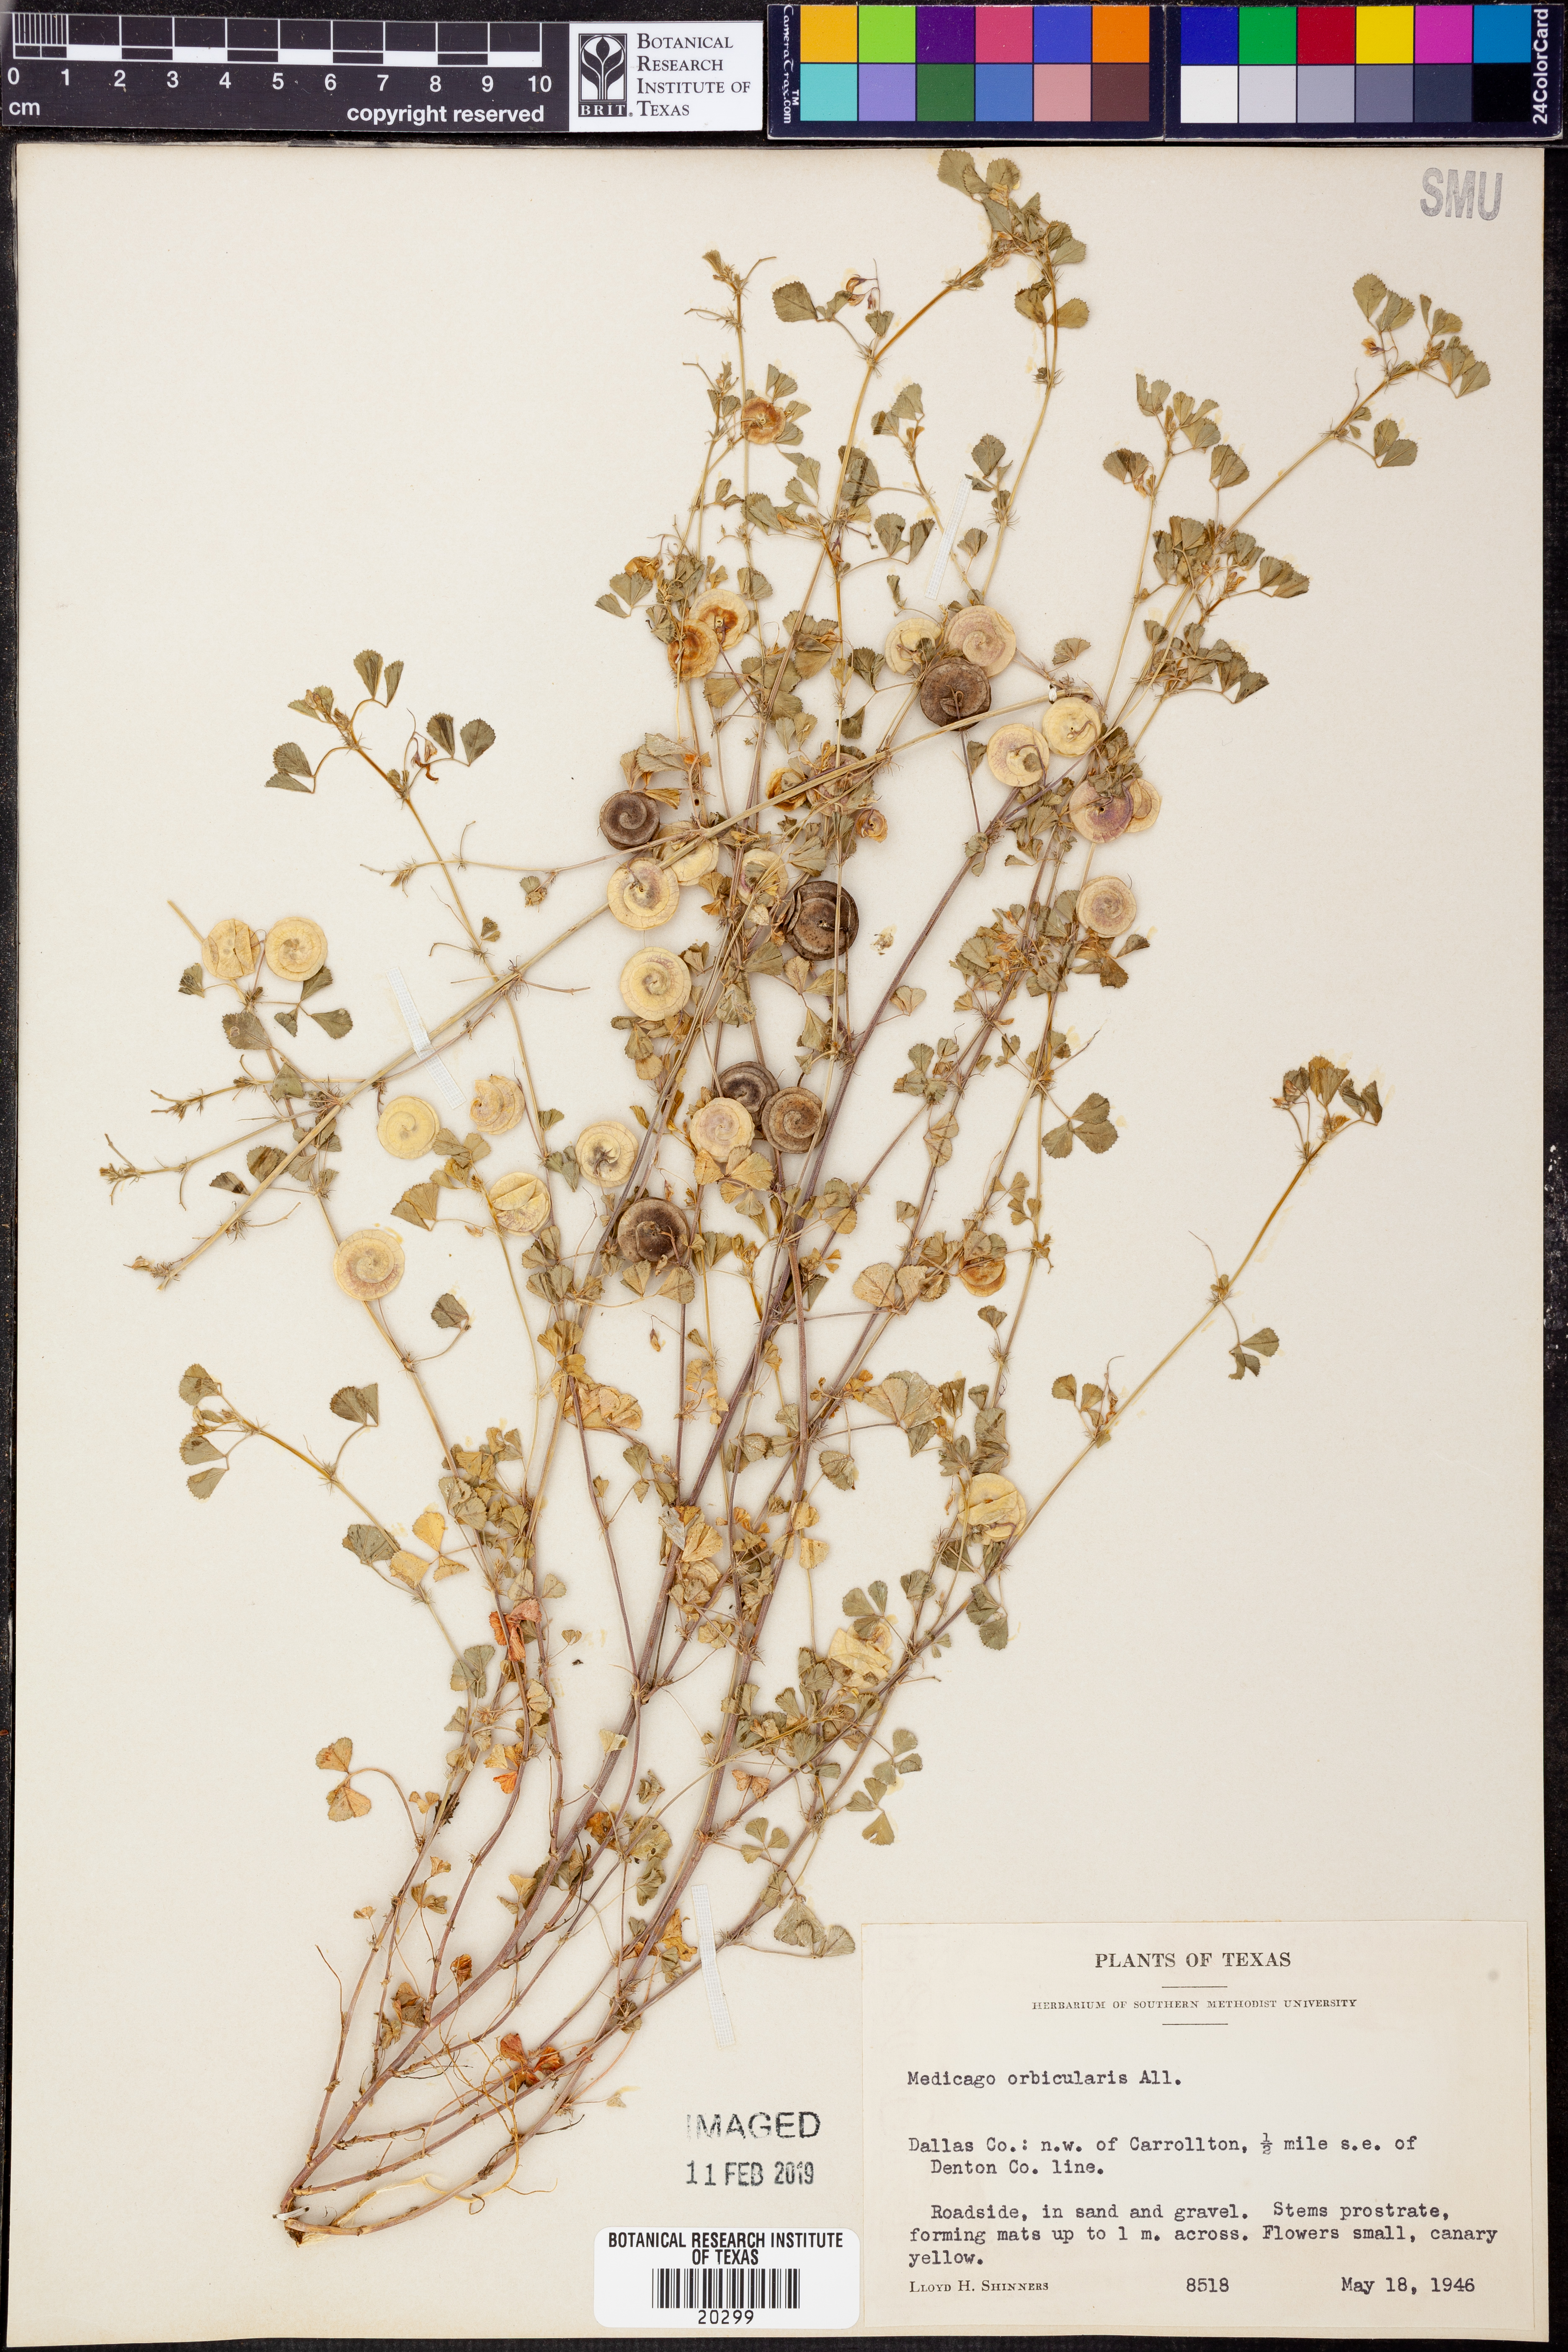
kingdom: Plantae
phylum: Tracheophyta
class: Magnoliopsida
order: Fabales
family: Fabaceae
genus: Medicago
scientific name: Medicago orbicularis
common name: Button medick
